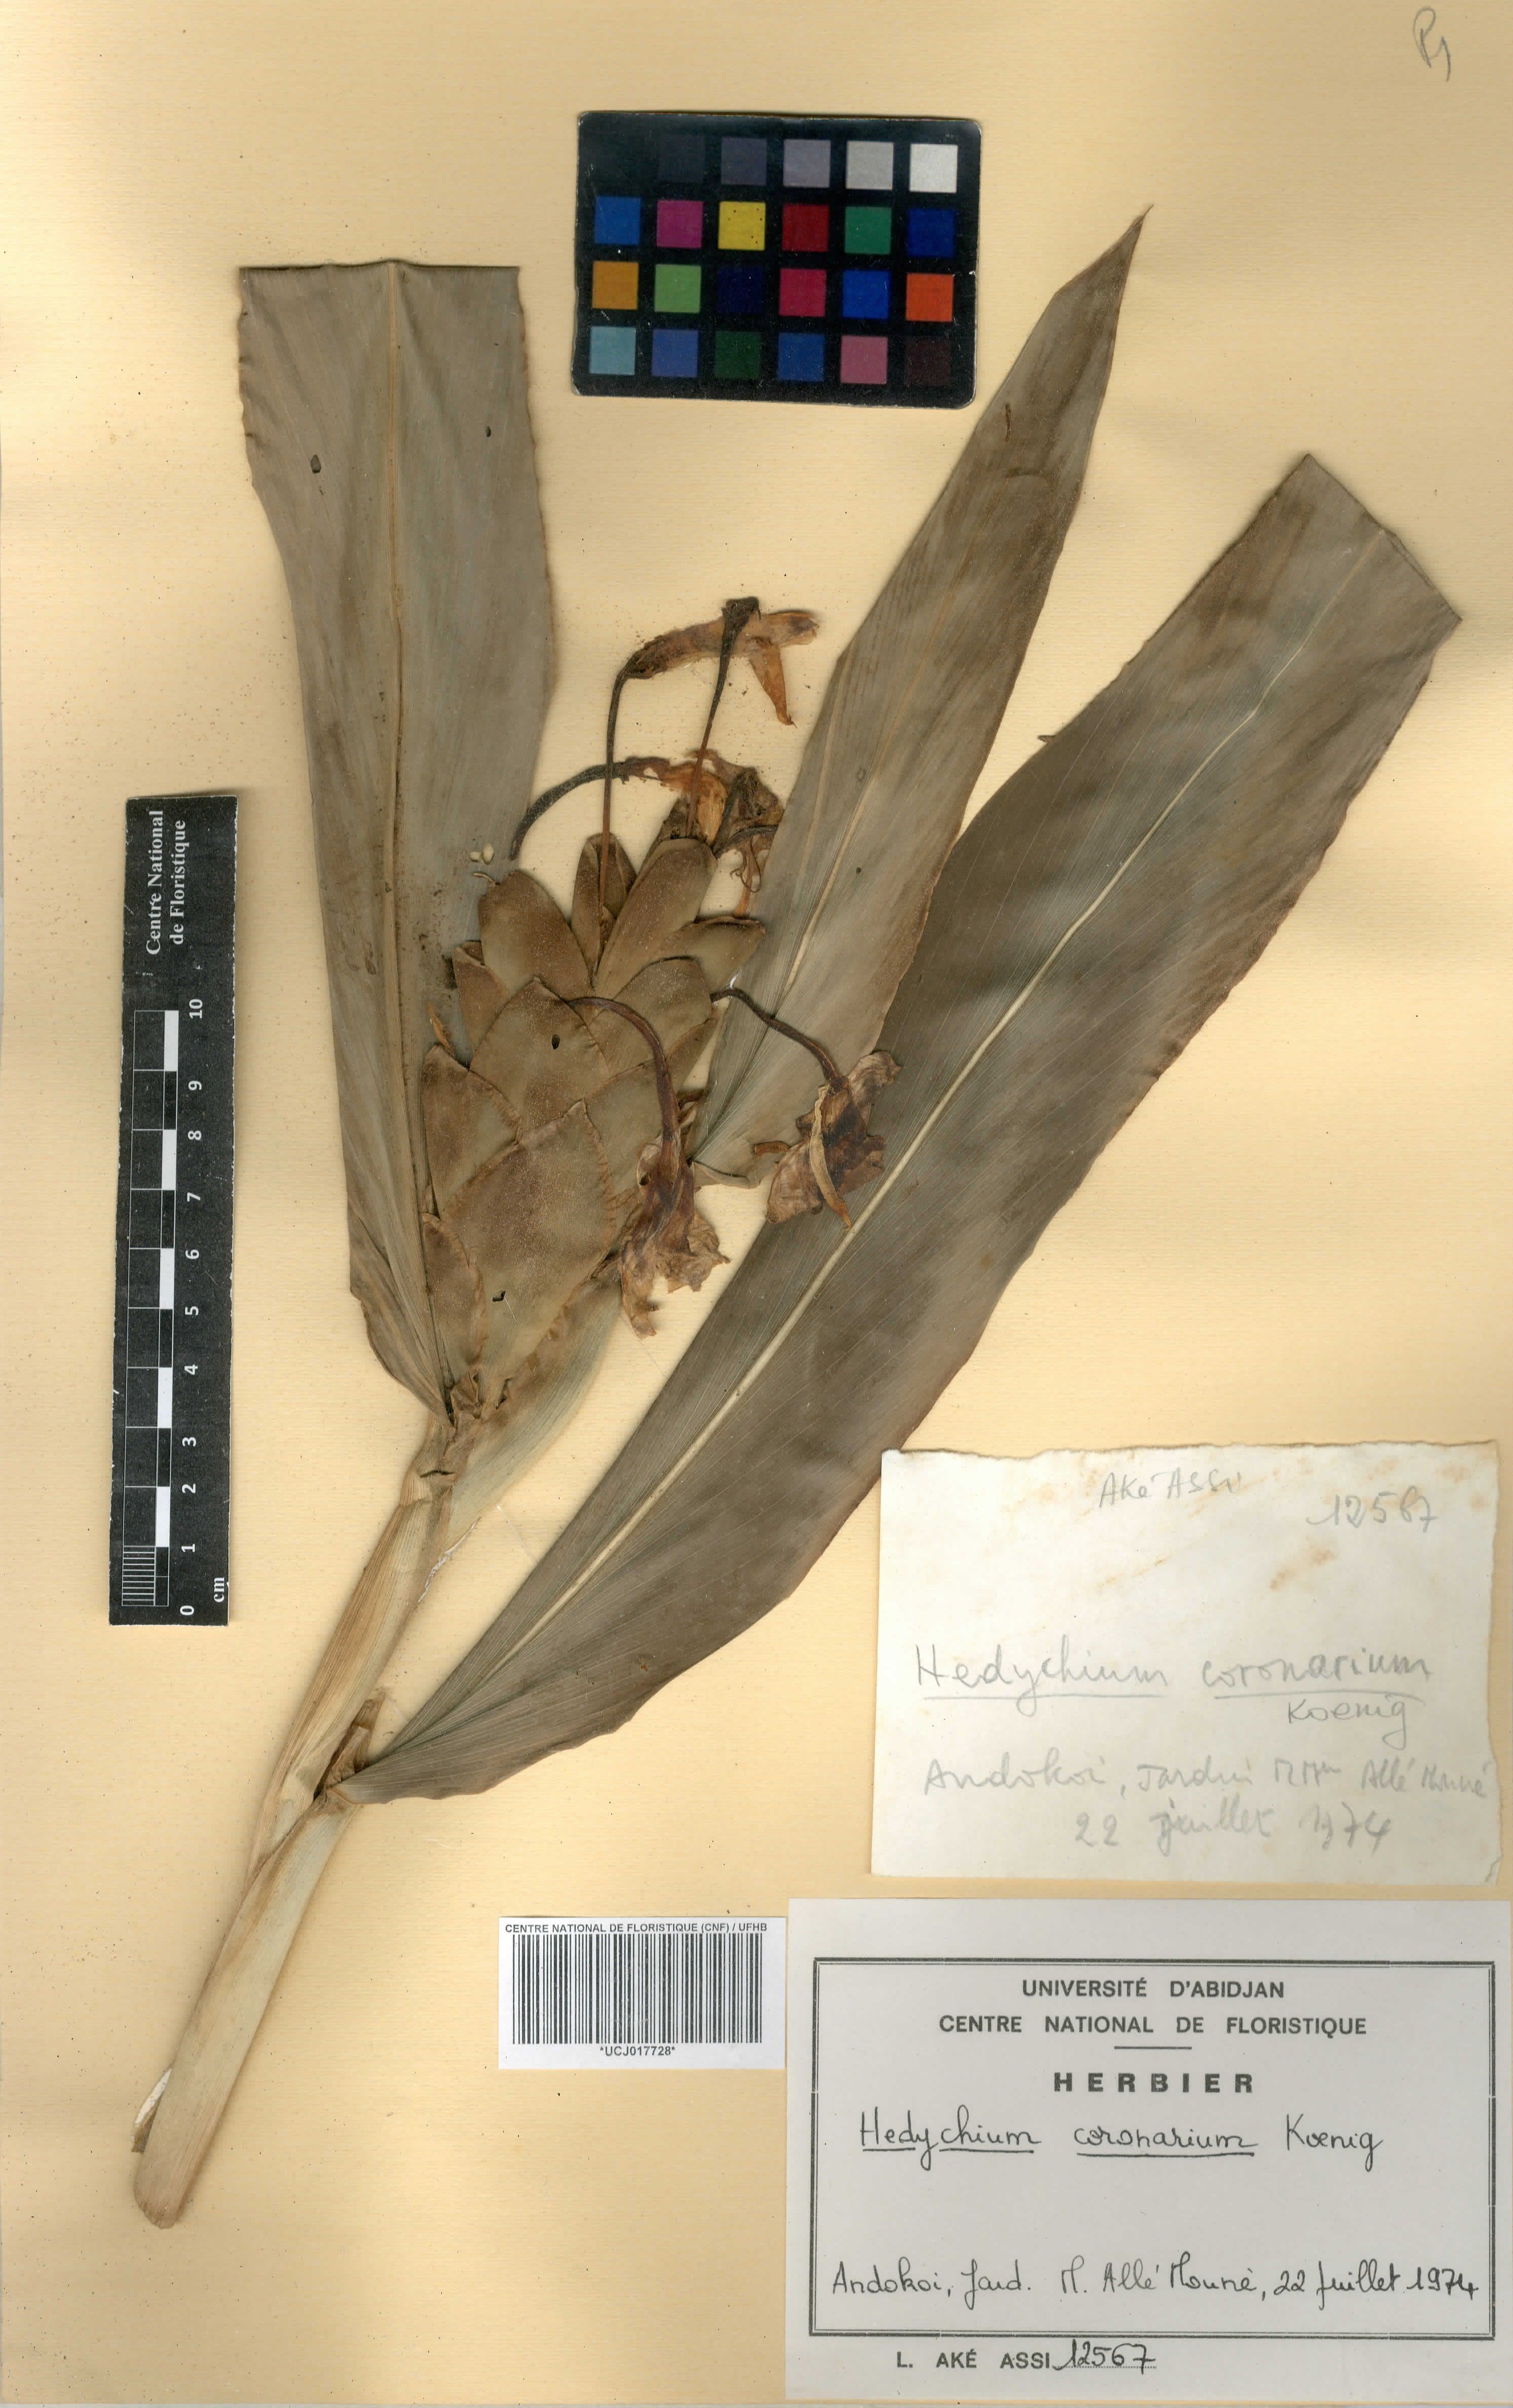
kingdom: Plantae
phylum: Tracheophyta
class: Liliopsida
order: Zingiberales
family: Zingiberaceae
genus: Hedychium
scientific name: Hedychium coronarium
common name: White garland-lily
